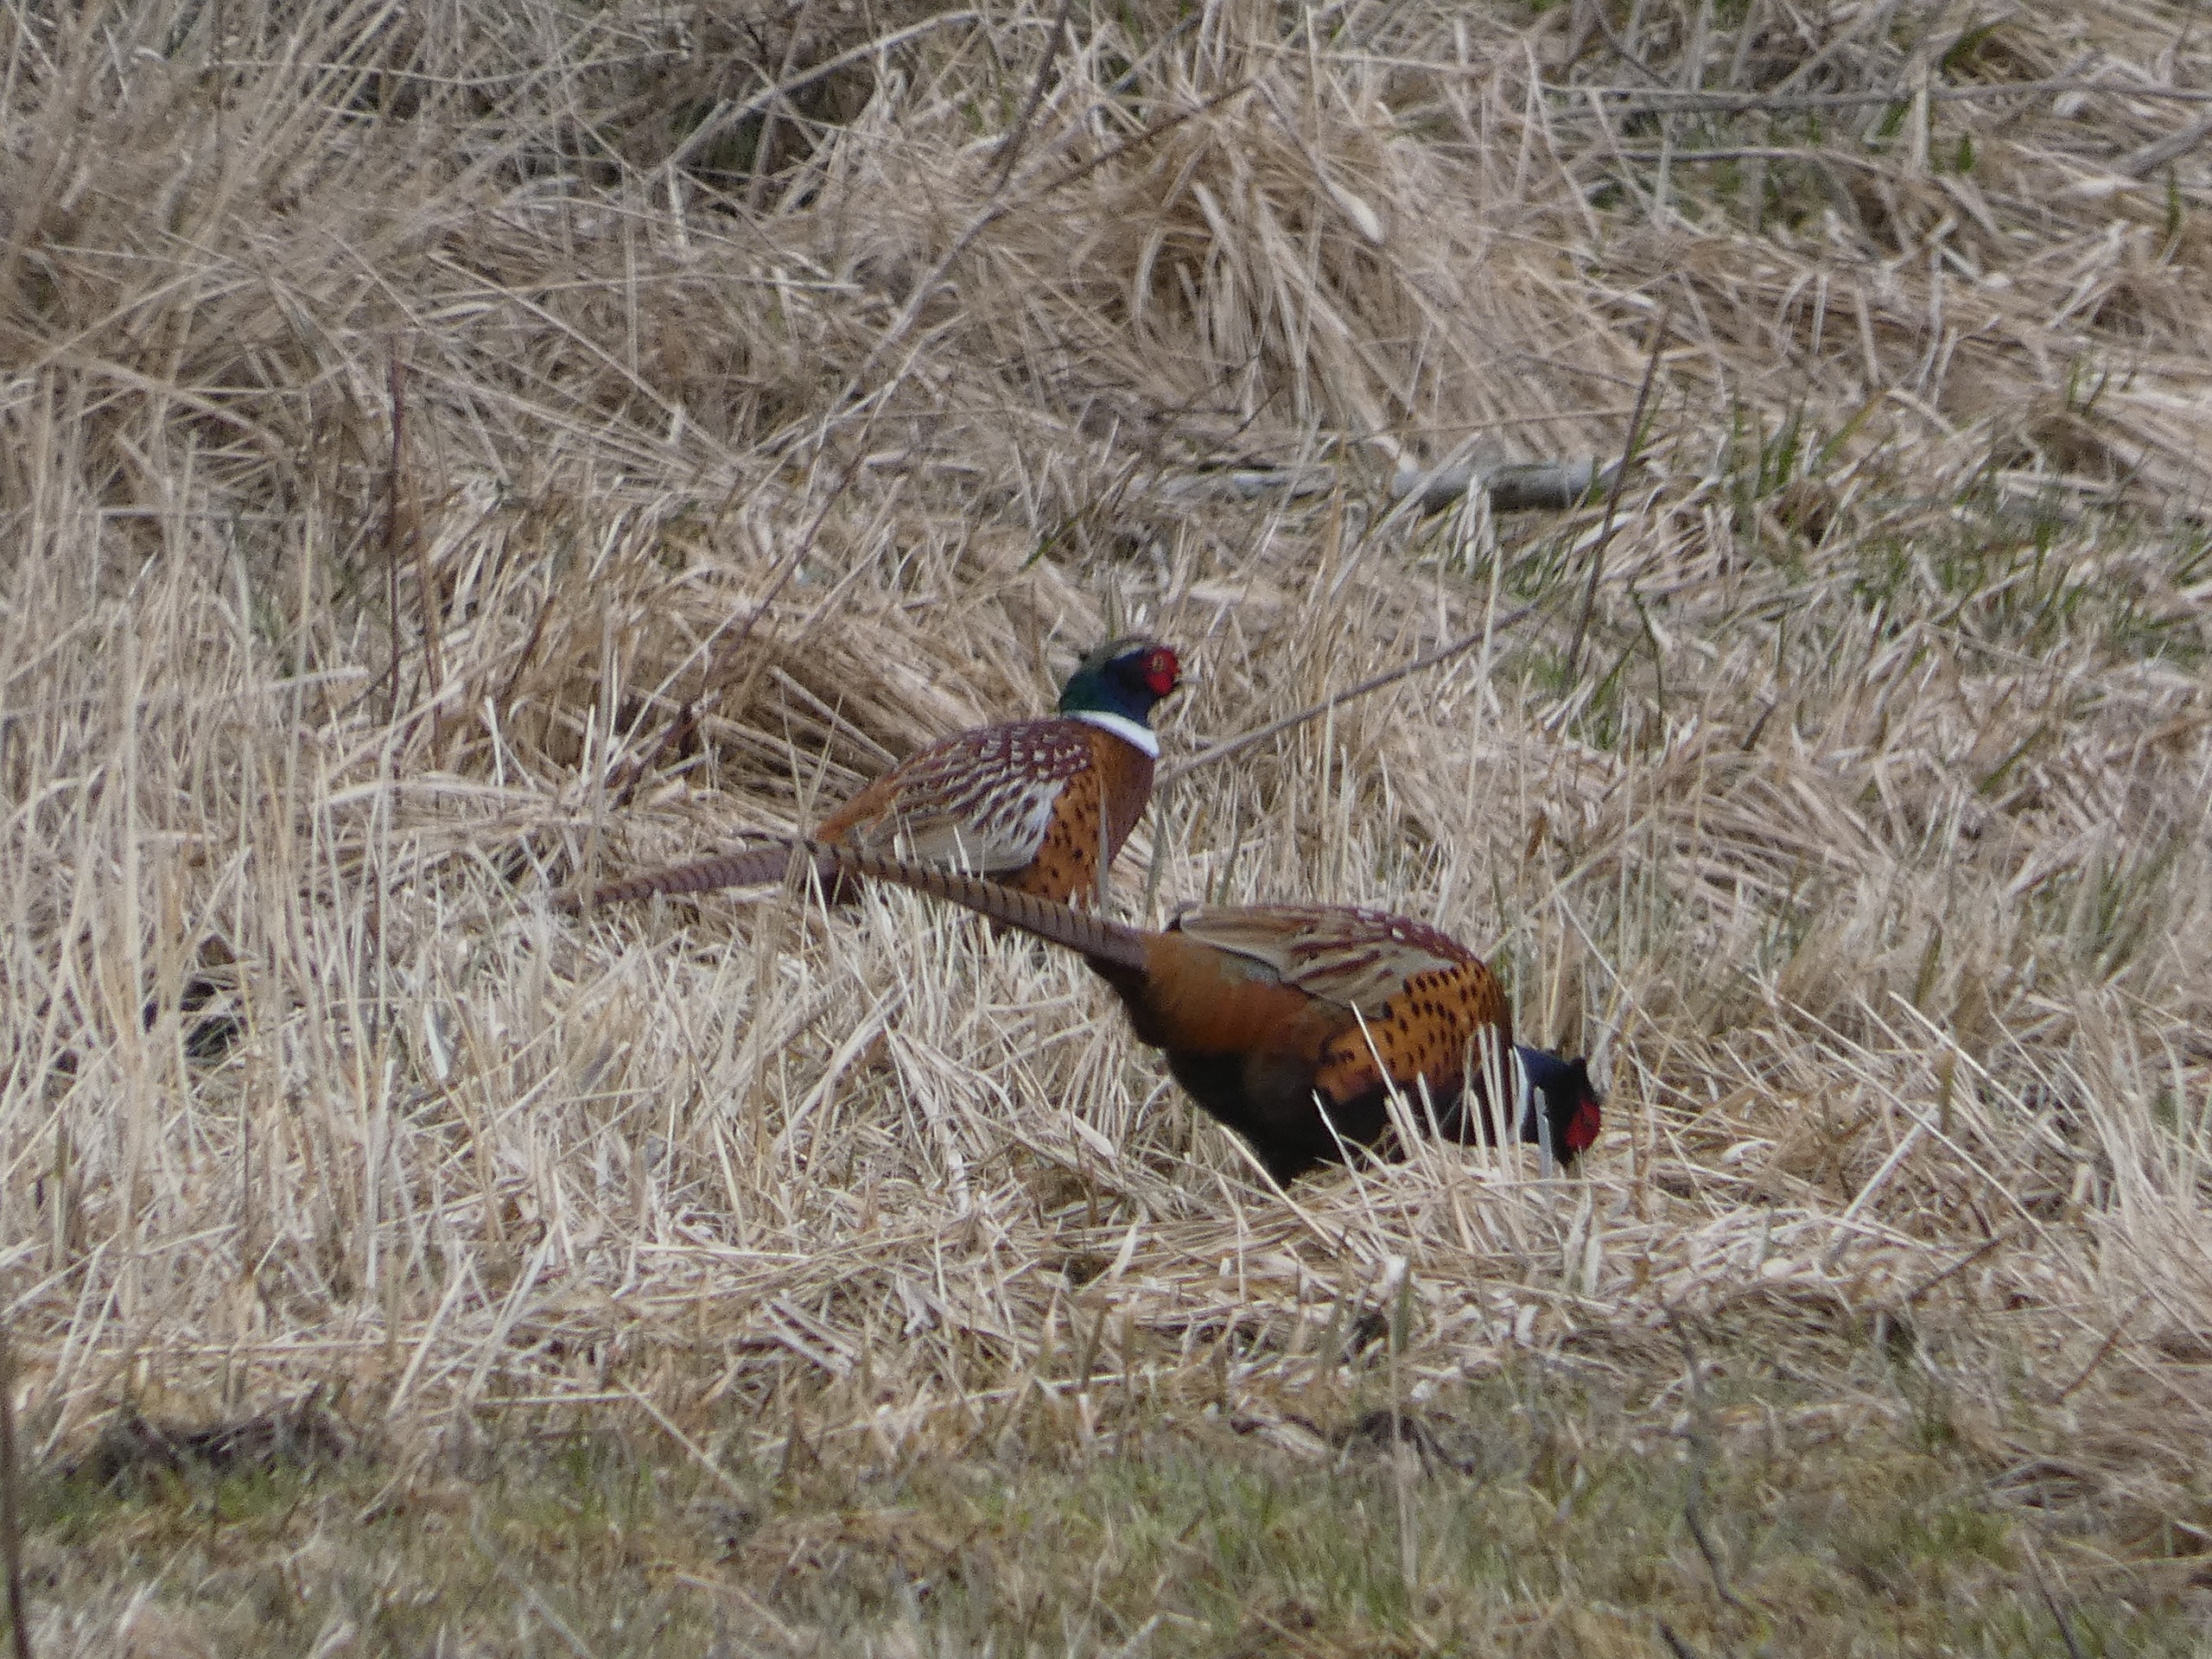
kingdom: Animalia
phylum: Chordata
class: Aves
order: Galliformes
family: Phasianidae
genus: Phasianus
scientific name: Phasianus colchicus
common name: Fasan
